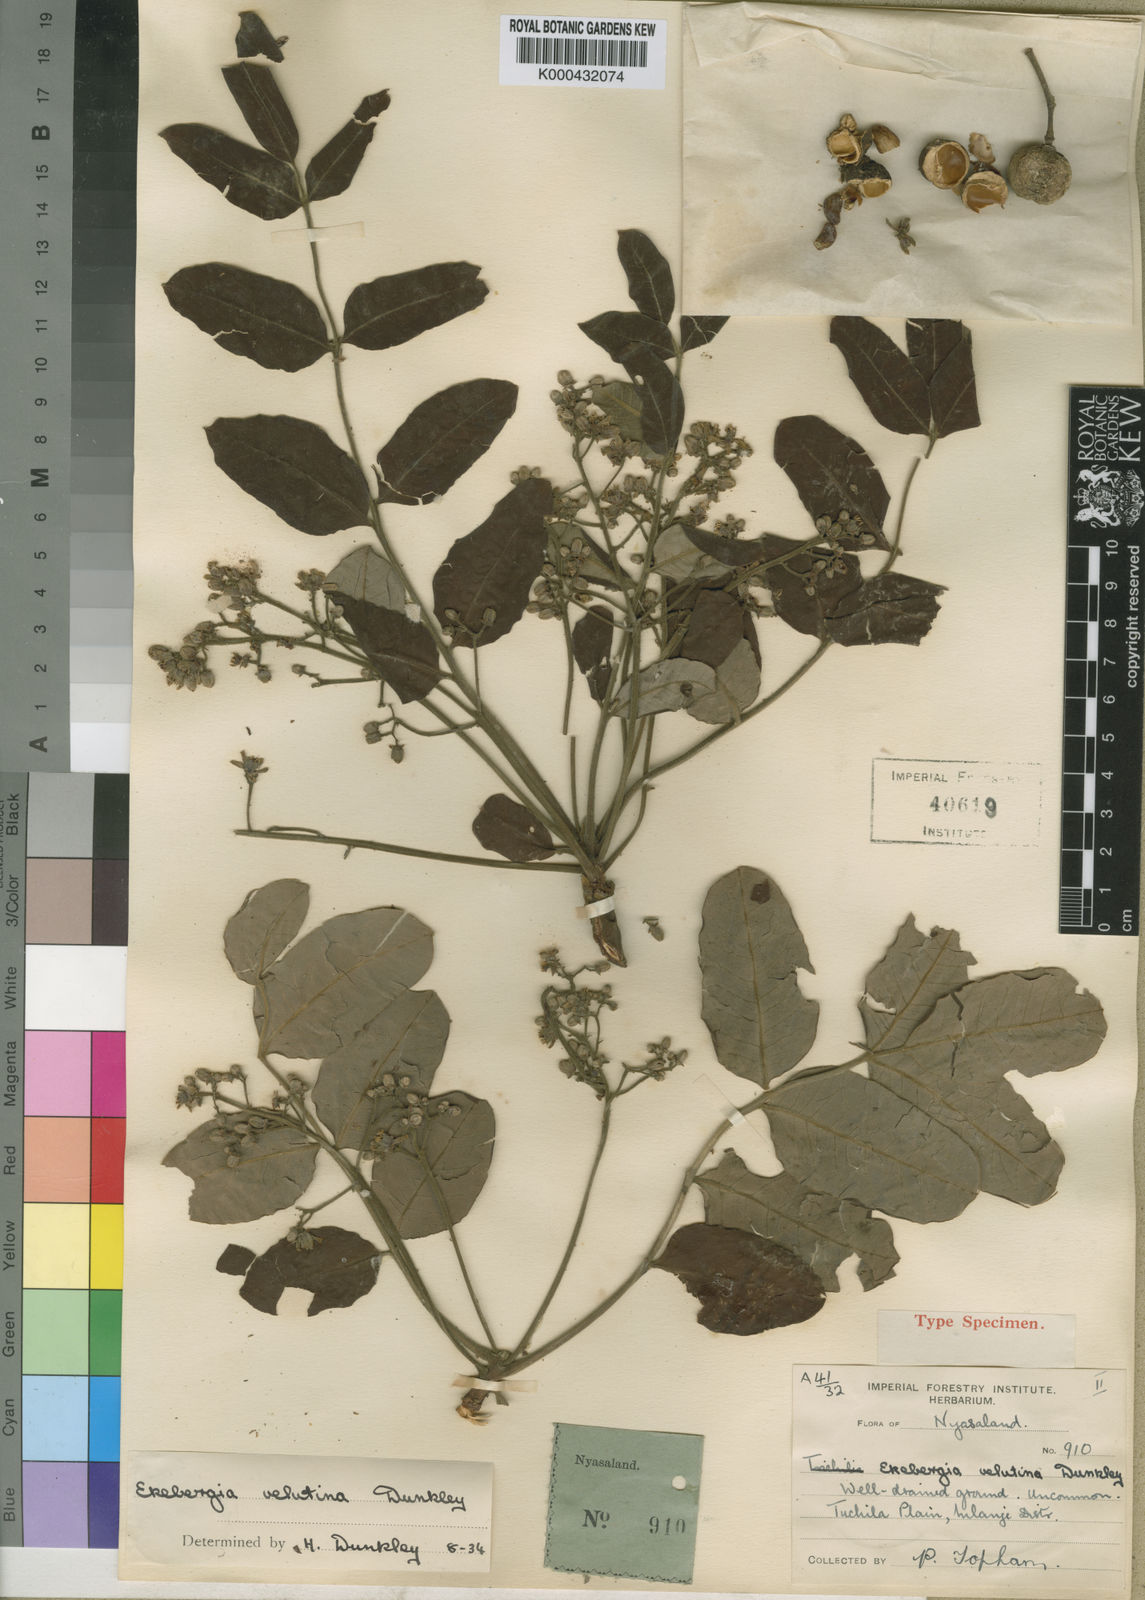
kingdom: Plantae
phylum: Tracheophyta
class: Magnoliopsida
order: Sapindales
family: Meliaceae
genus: Ekebergia
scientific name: Ekebergia benguelensis
